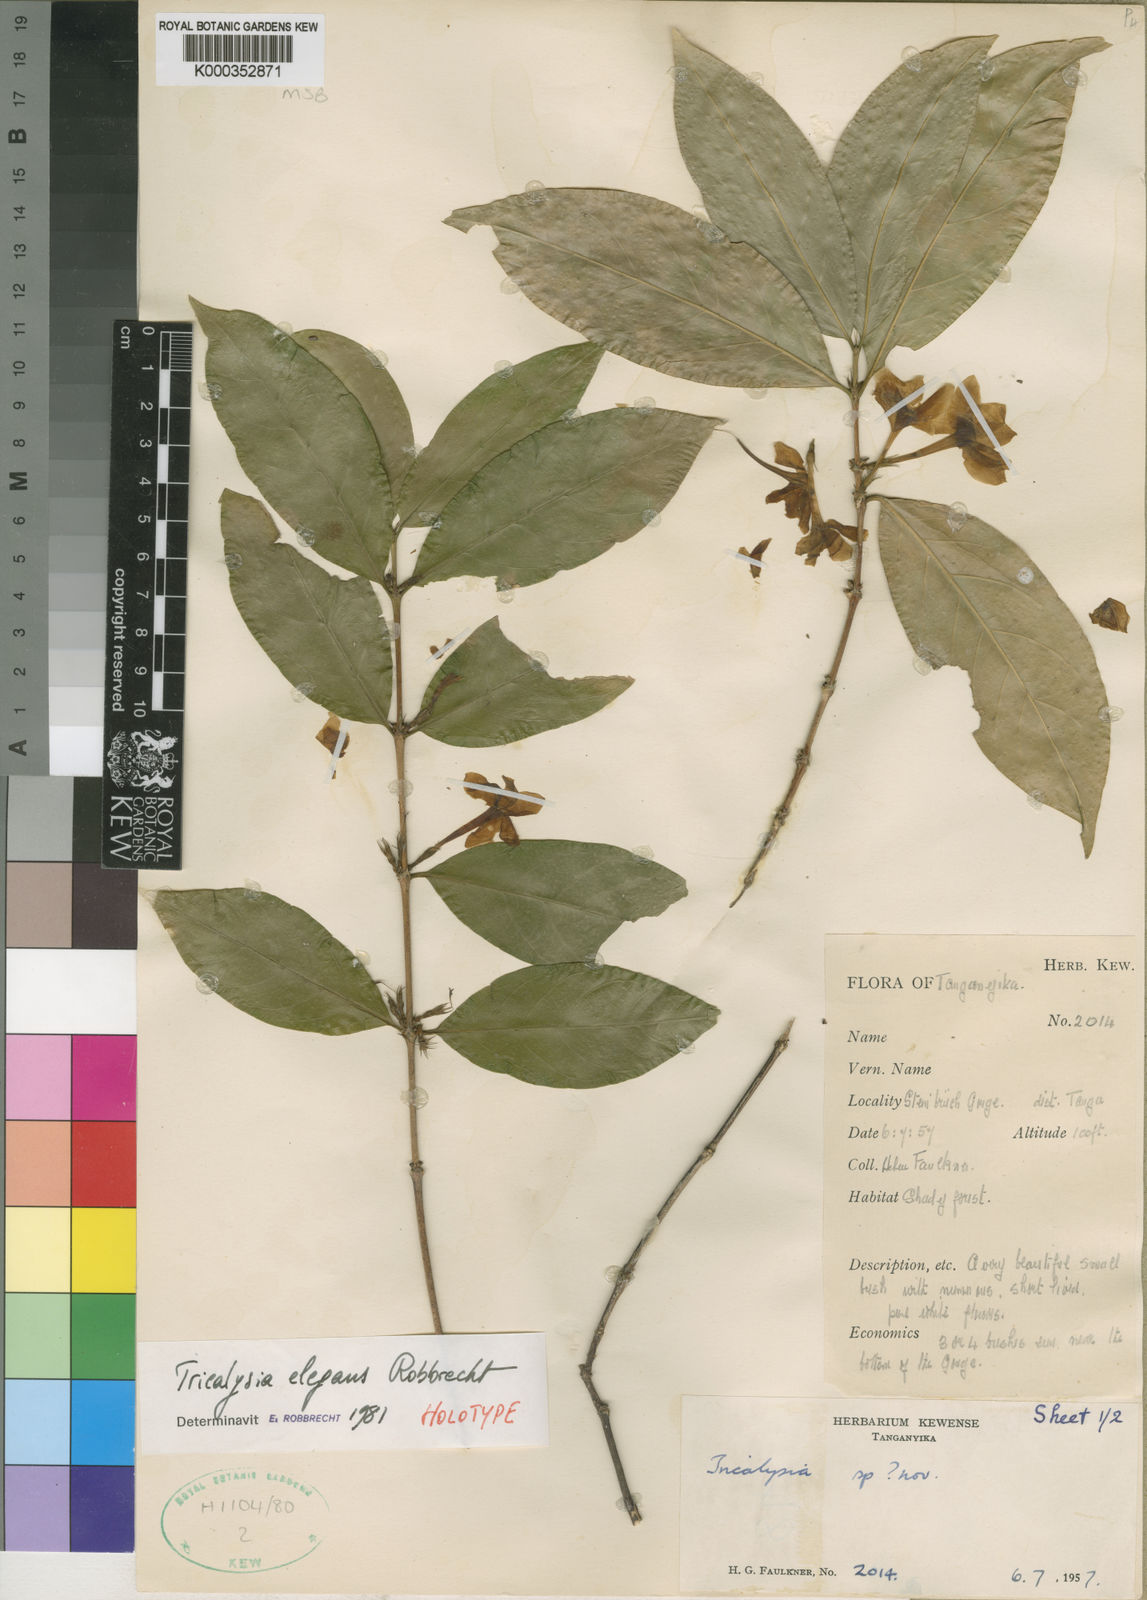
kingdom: Plantae
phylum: Tracheophyta
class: Magnoliopsida
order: Gentianales
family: Rubiaceae
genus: Tricalysia
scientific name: Tricalysia elegans
